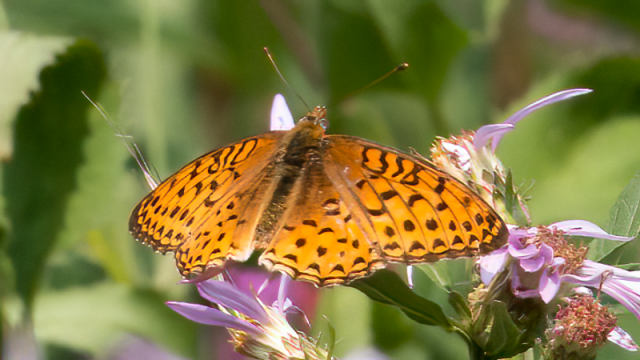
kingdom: Animalia
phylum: Arthropoda
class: Insecta
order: Lepidoptera
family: Nymphalidae
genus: Speyeria
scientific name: Speyeria atlantis
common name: Northwestern Fritillary
